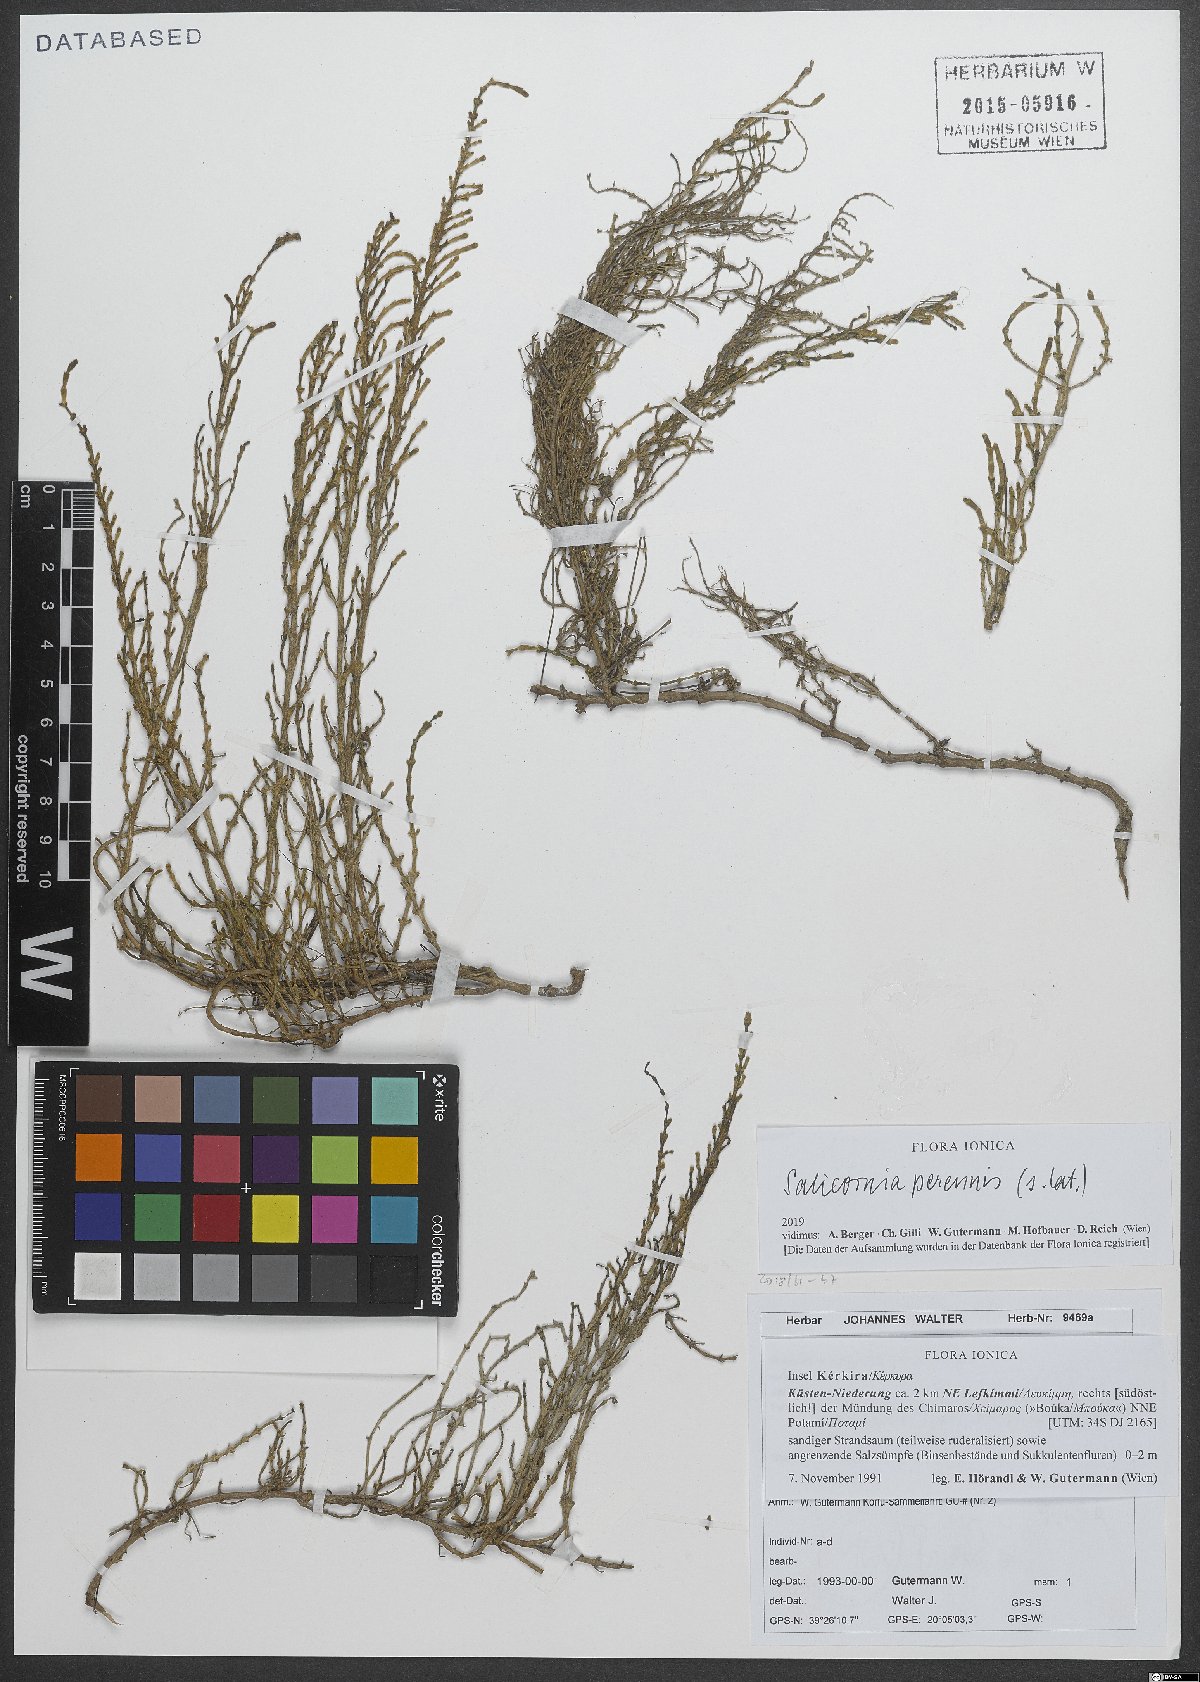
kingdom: Plantae
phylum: Tracheophyta
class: Magnoliopsida
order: Caryophyllales
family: Amaranthaceae
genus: Salicornia
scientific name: Salicornia perennis
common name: Chicken claws
